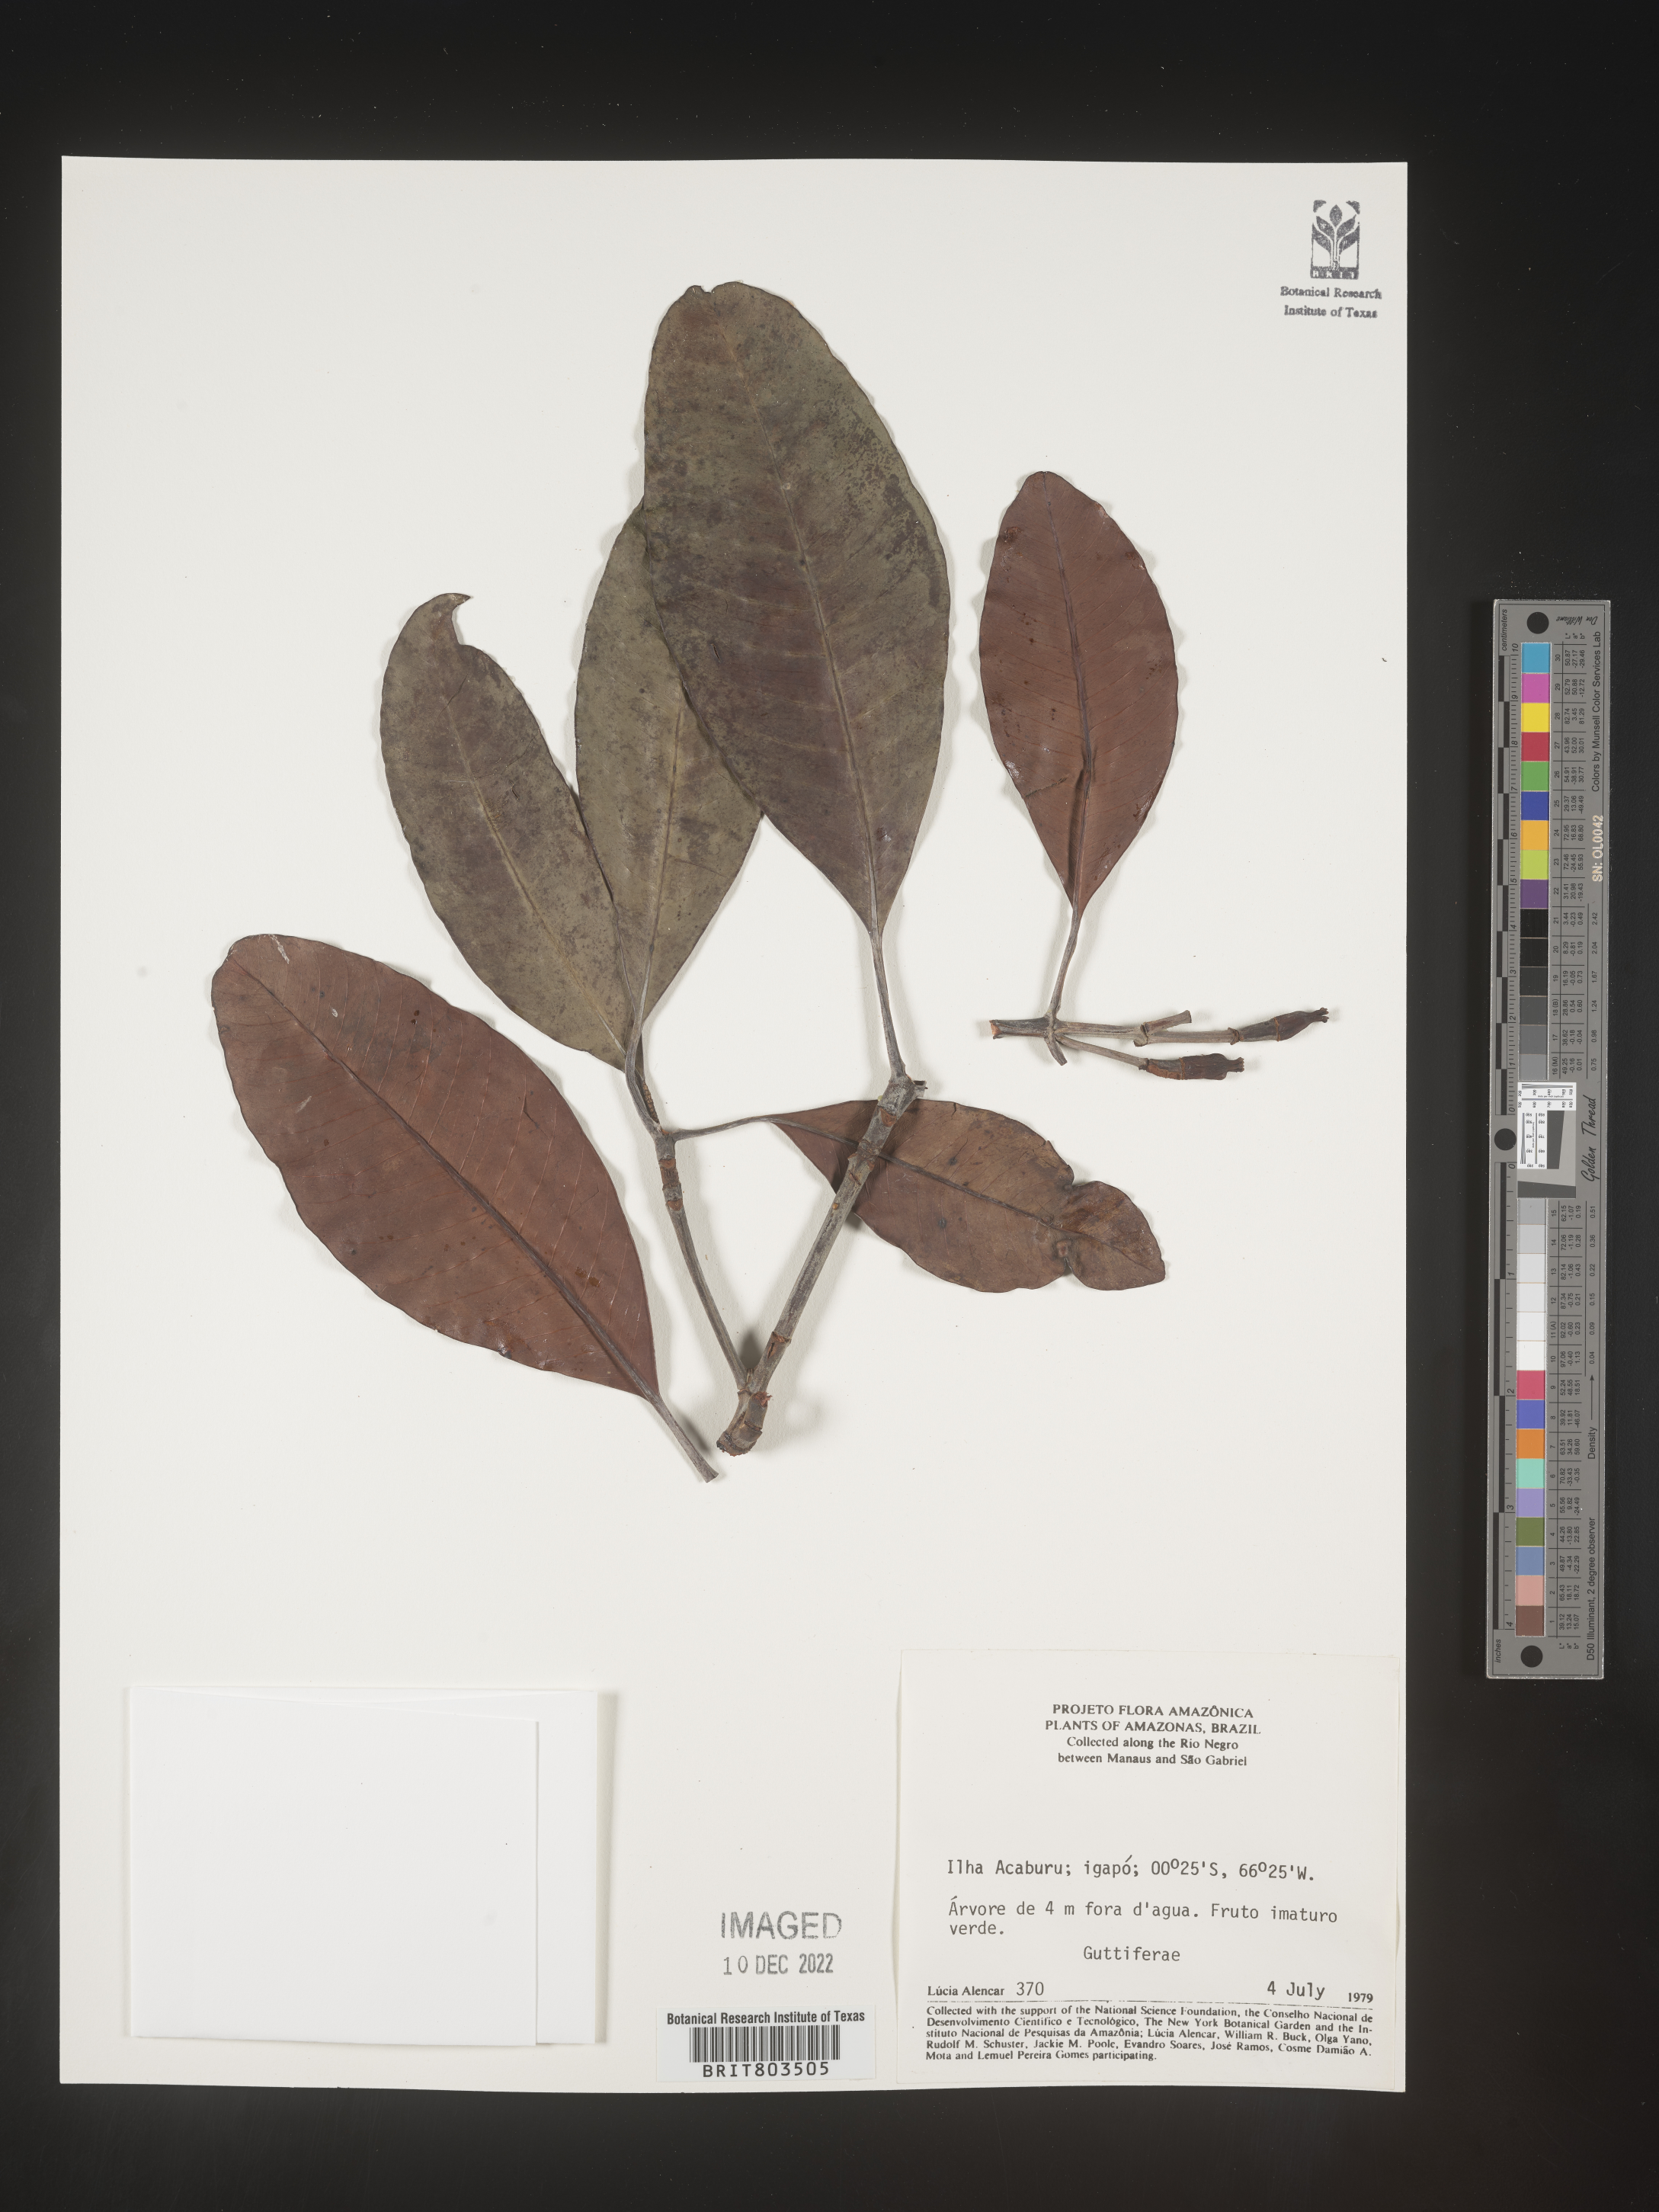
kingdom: Plantae
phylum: Tracheophyta
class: Magnoliopsida
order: Malpighiales
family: Clusiaceae
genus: Tovomita
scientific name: Tovomita
